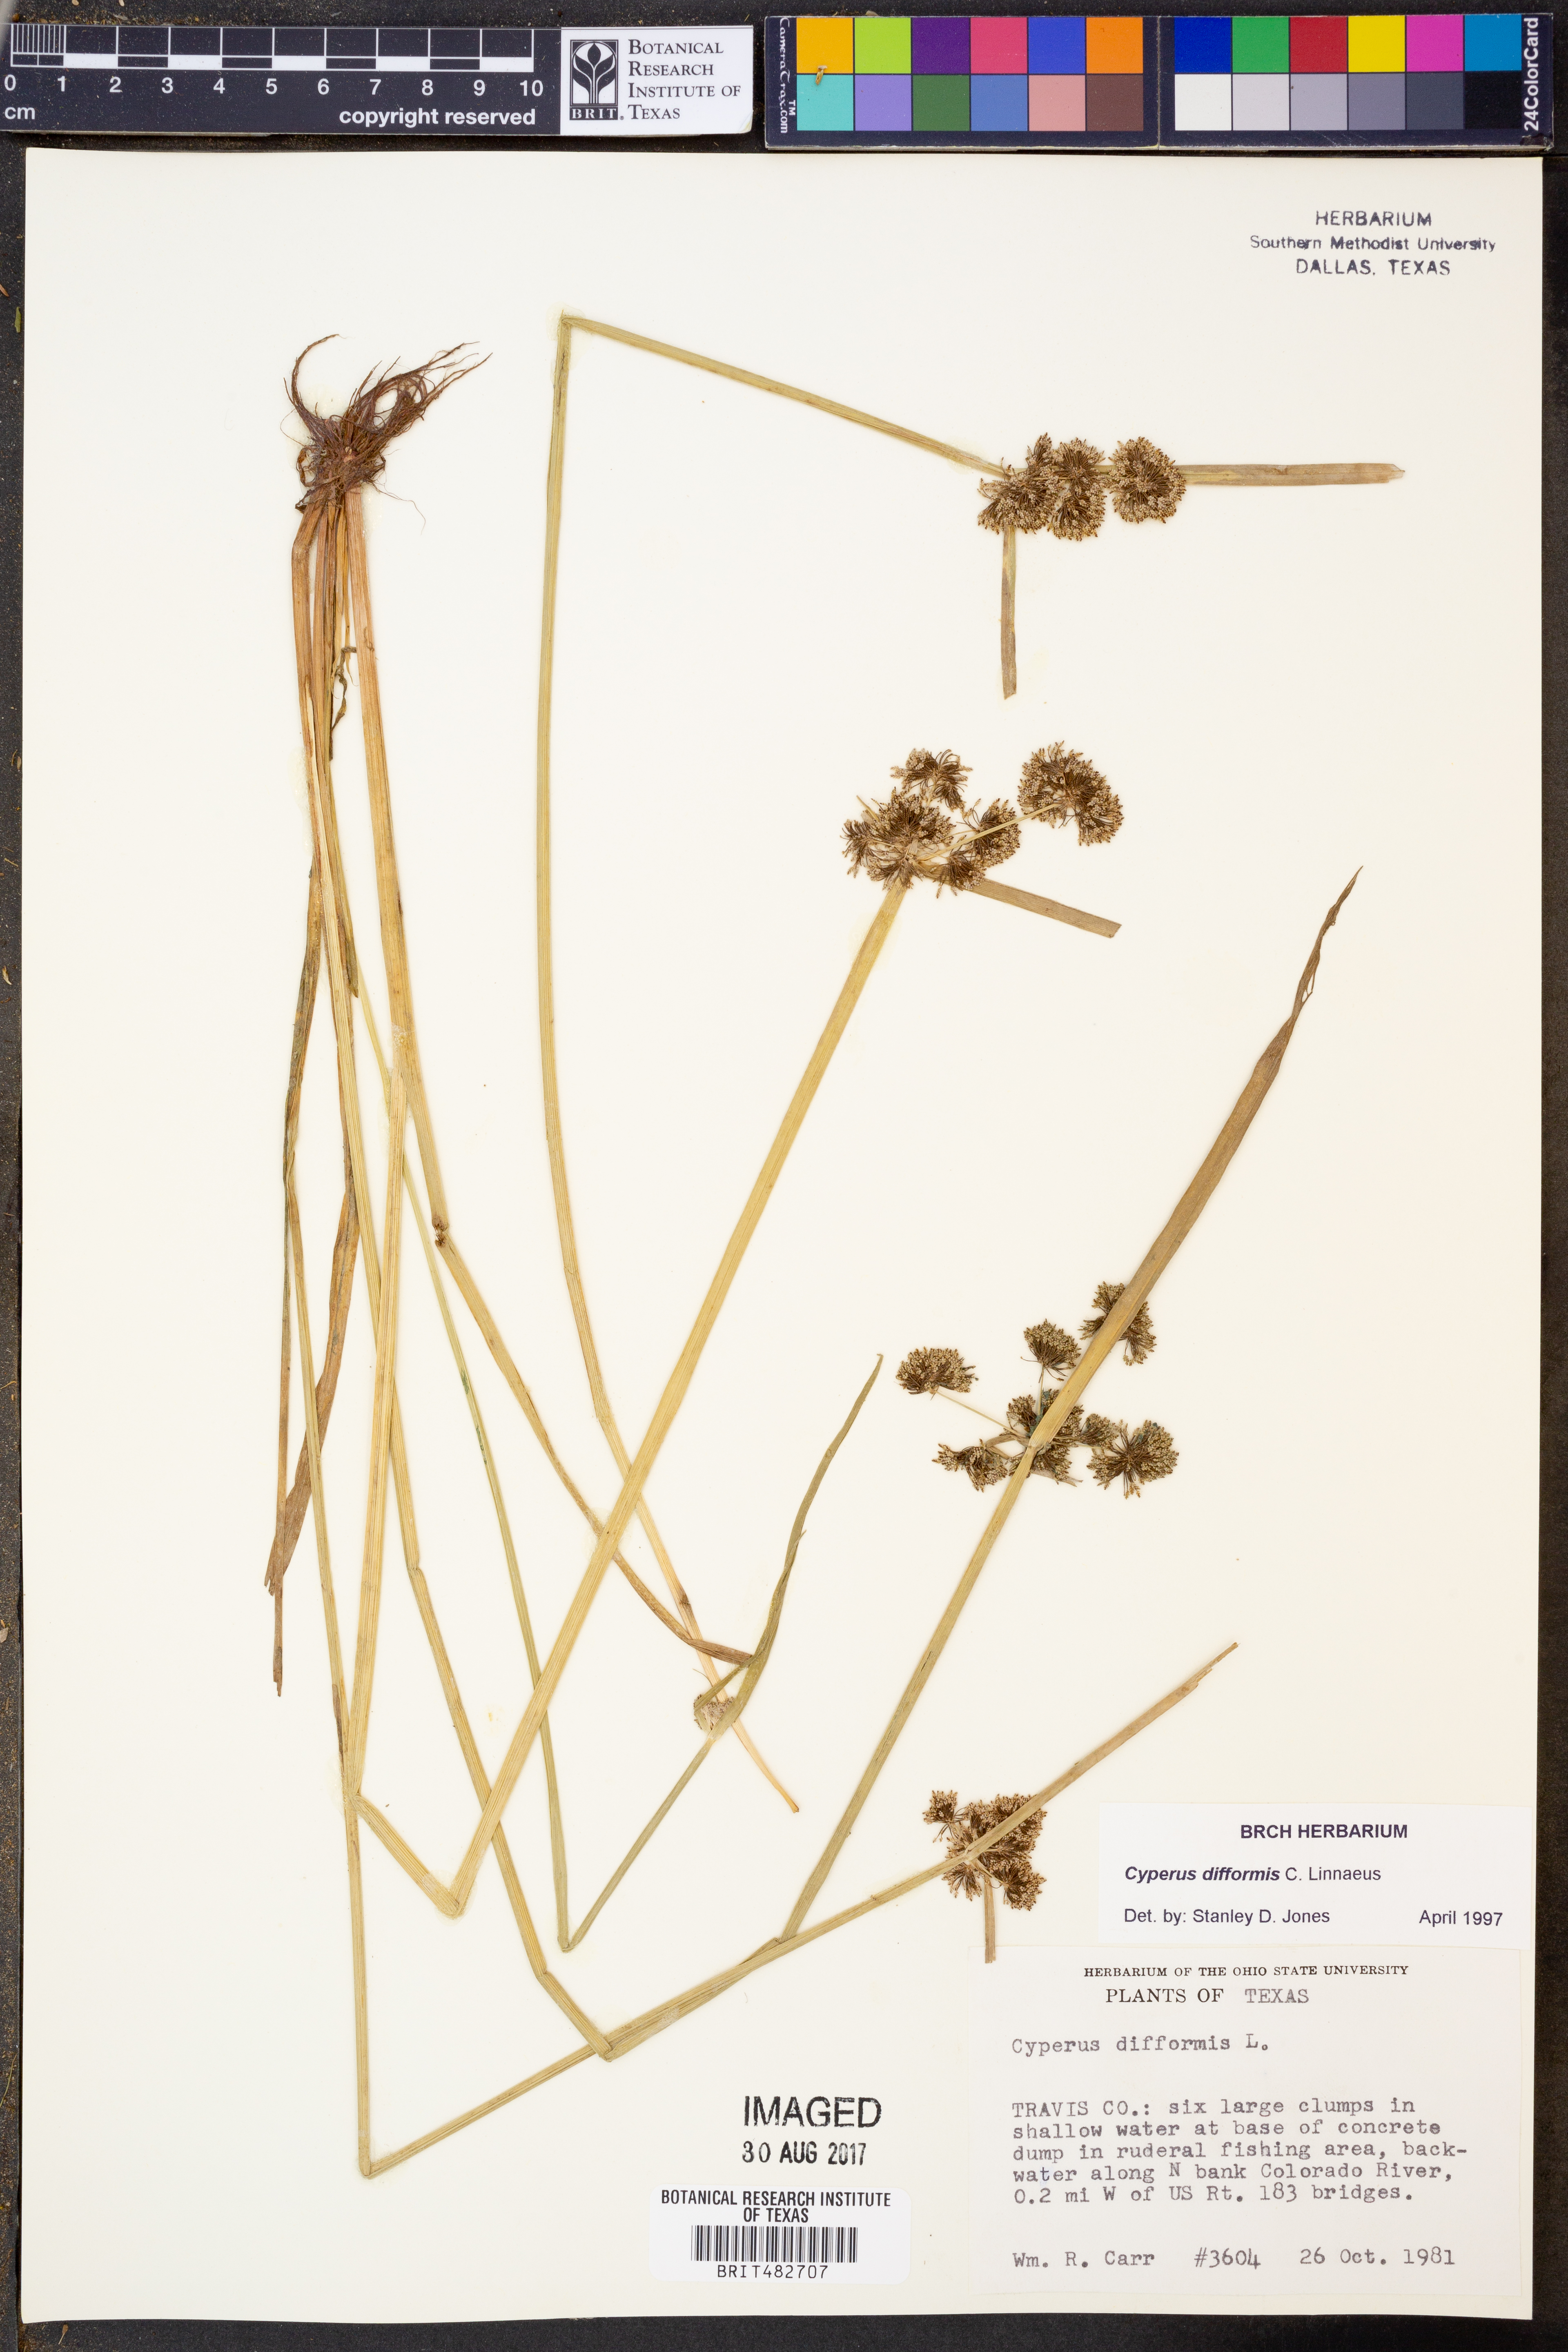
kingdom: Plantae
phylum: Tracheophyta
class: Liliopsida
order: Poales
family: Cyperaceae
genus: Cyperus
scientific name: Cyperus difformis
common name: Variable flatsedge
